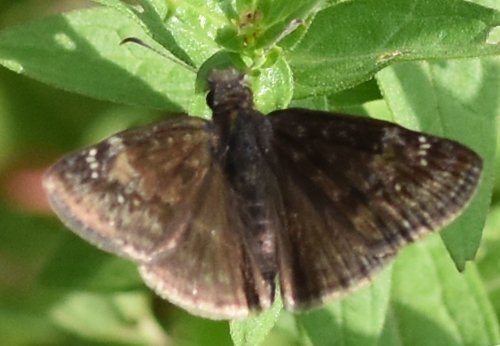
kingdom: Animalia
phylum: Arthropoda
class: Insecta
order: Lepidoptera
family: Hesperiidae
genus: Gesta
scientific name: Gesta
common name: Wild Indigo Duskywing
